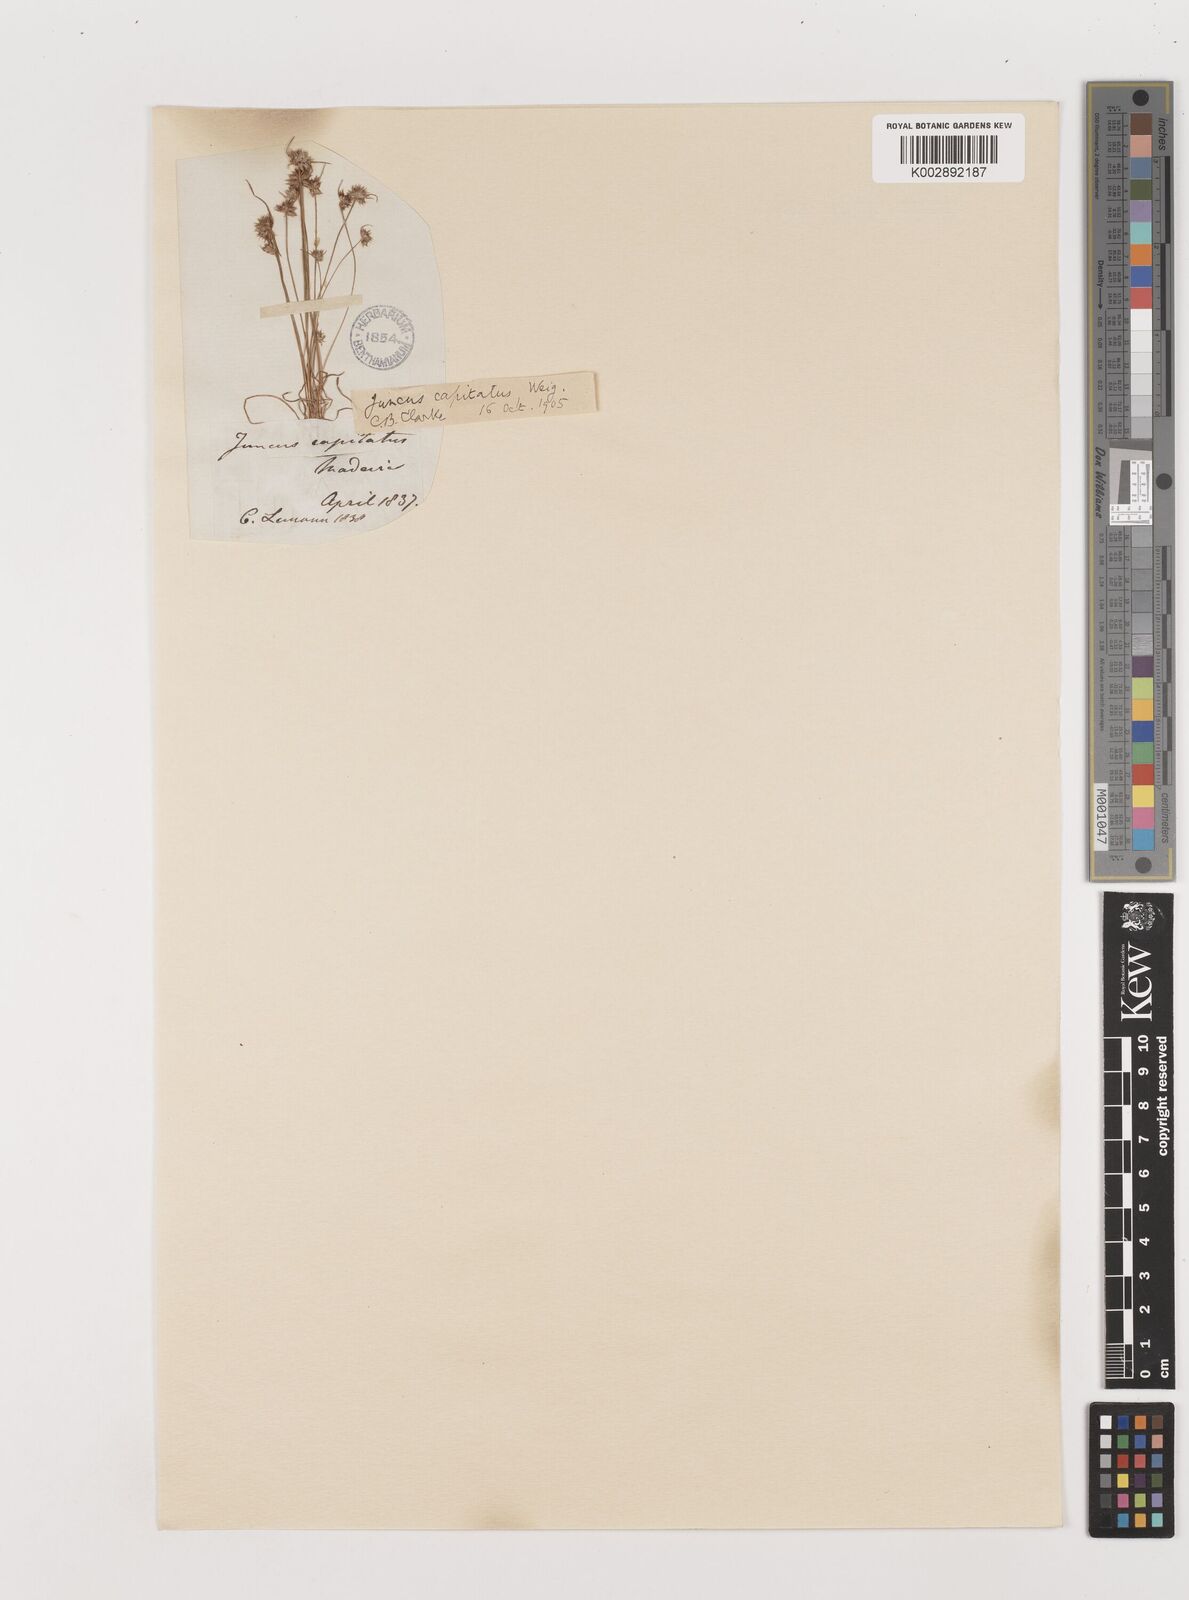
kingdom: Plantae
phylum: Tracheophyta
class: Liliopsida
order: Poales
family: Juncaceae
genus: Juncus
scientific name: Juncus capitatus
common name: Dwarf rush
